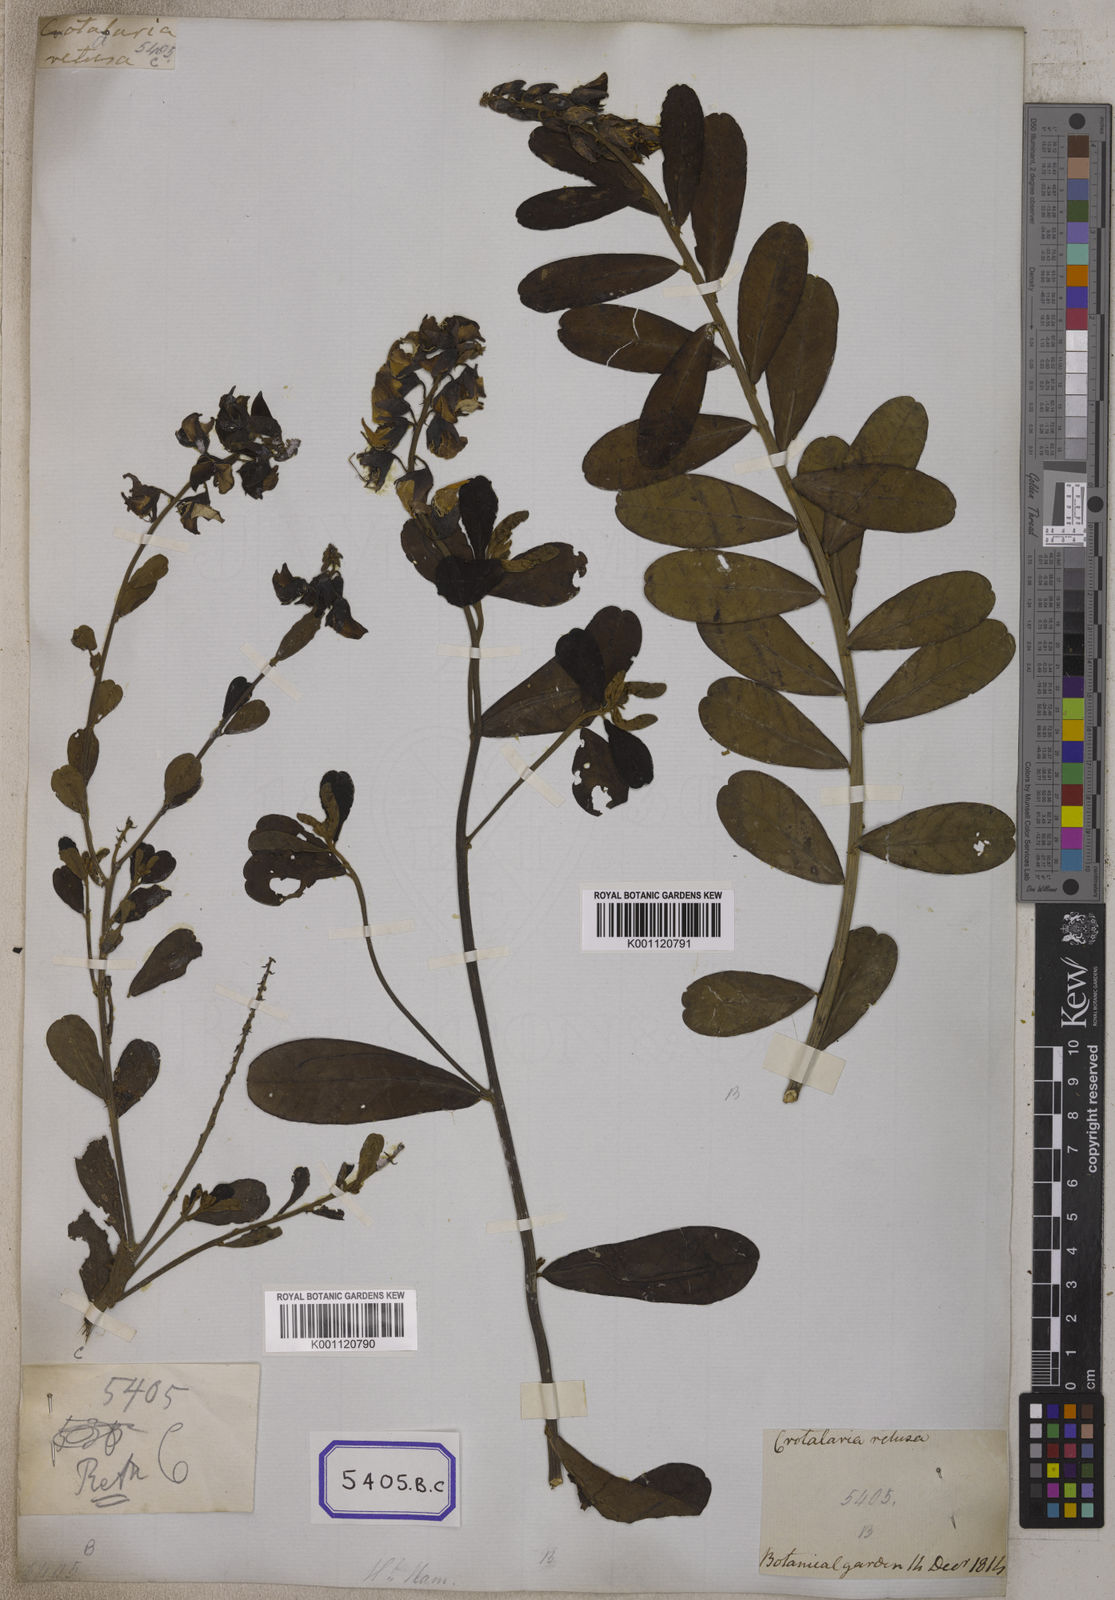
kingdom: Plantae
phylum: Tracheophyta
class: Magnoliopsida
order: Fabales
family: Fabaceae
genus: Crotalaria
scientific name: Crotalaria retusa
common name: Rattleweed
